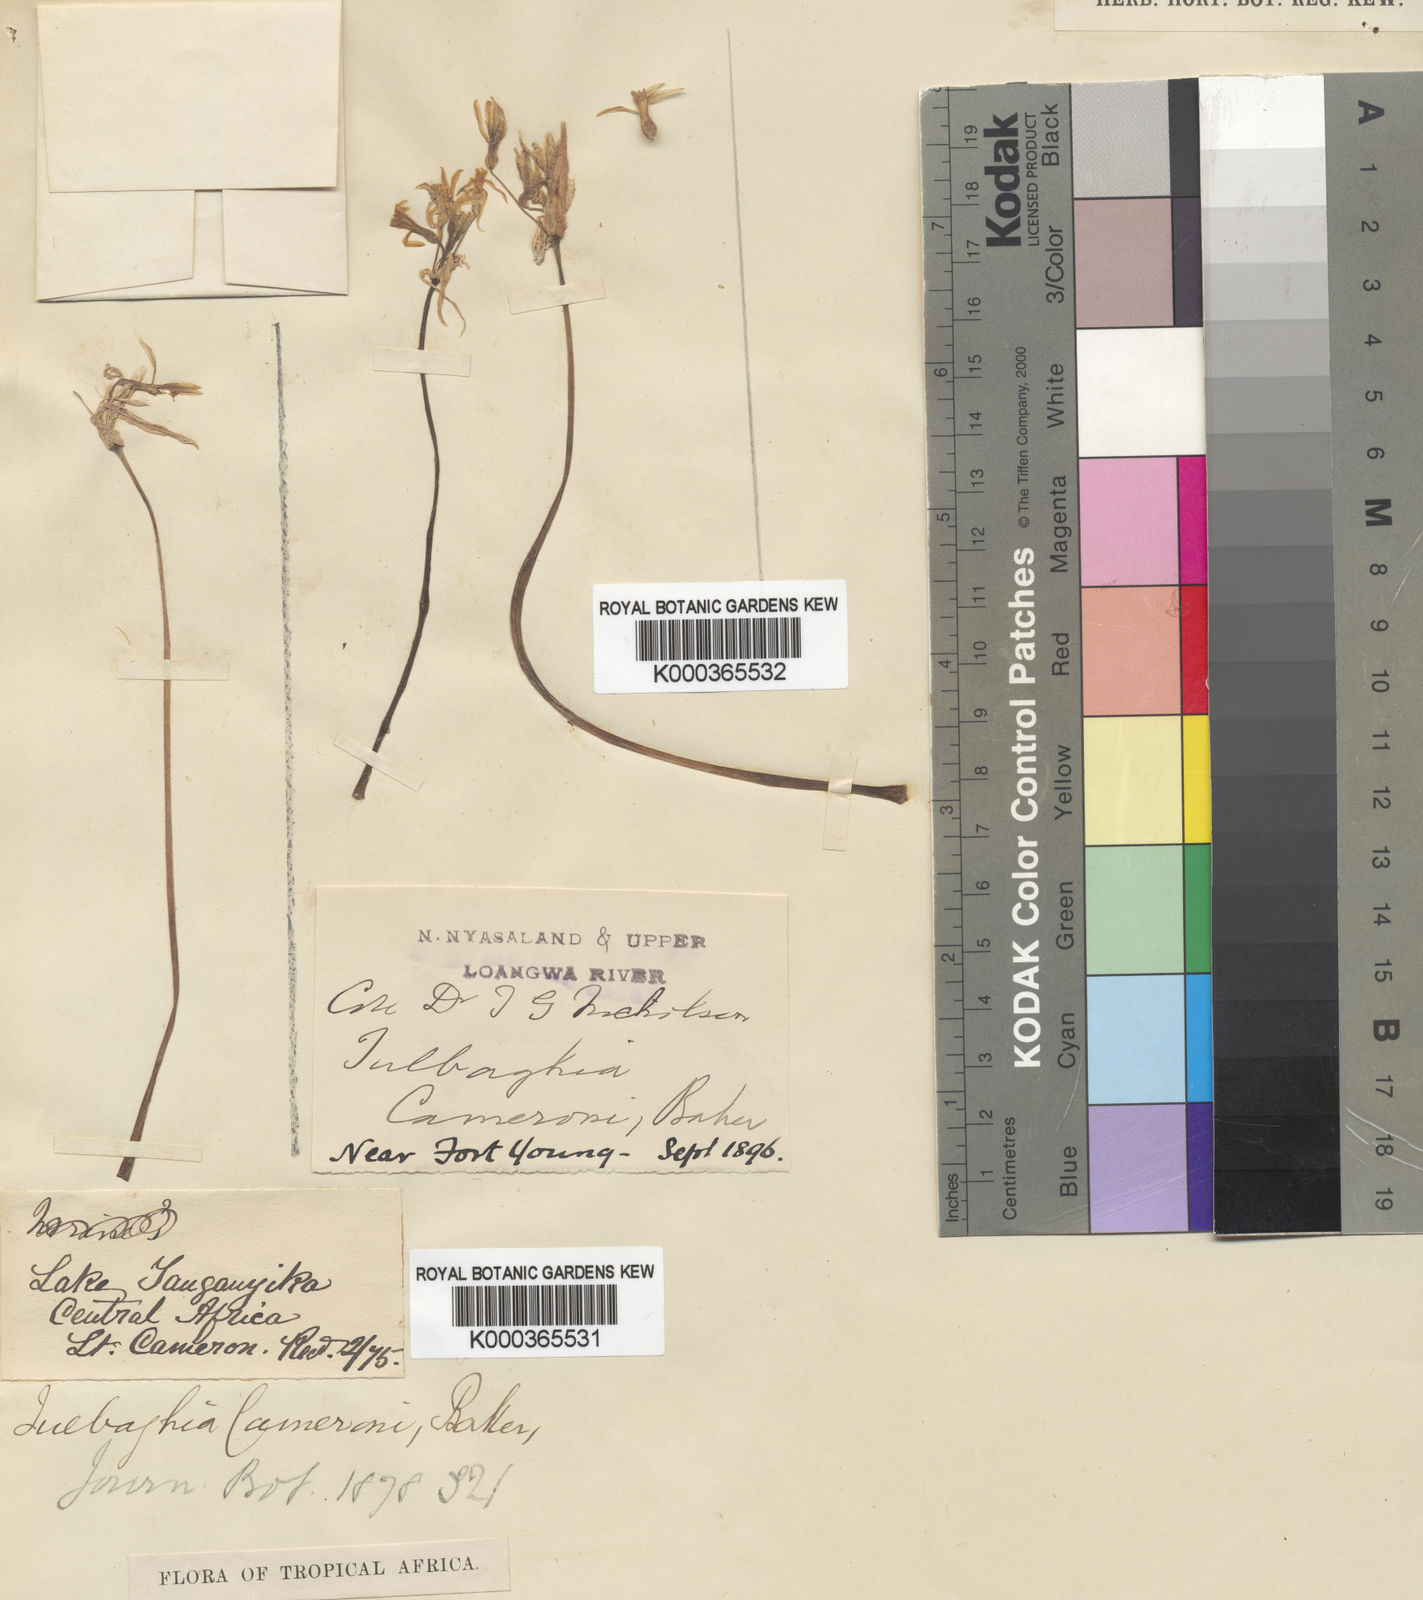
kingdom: Plantae
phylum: Tracheophyta
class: Liliopsida
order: Asparagales
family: Amaryllidaceae
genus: Tulbaghia
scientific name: Tulbaghia cameronii
